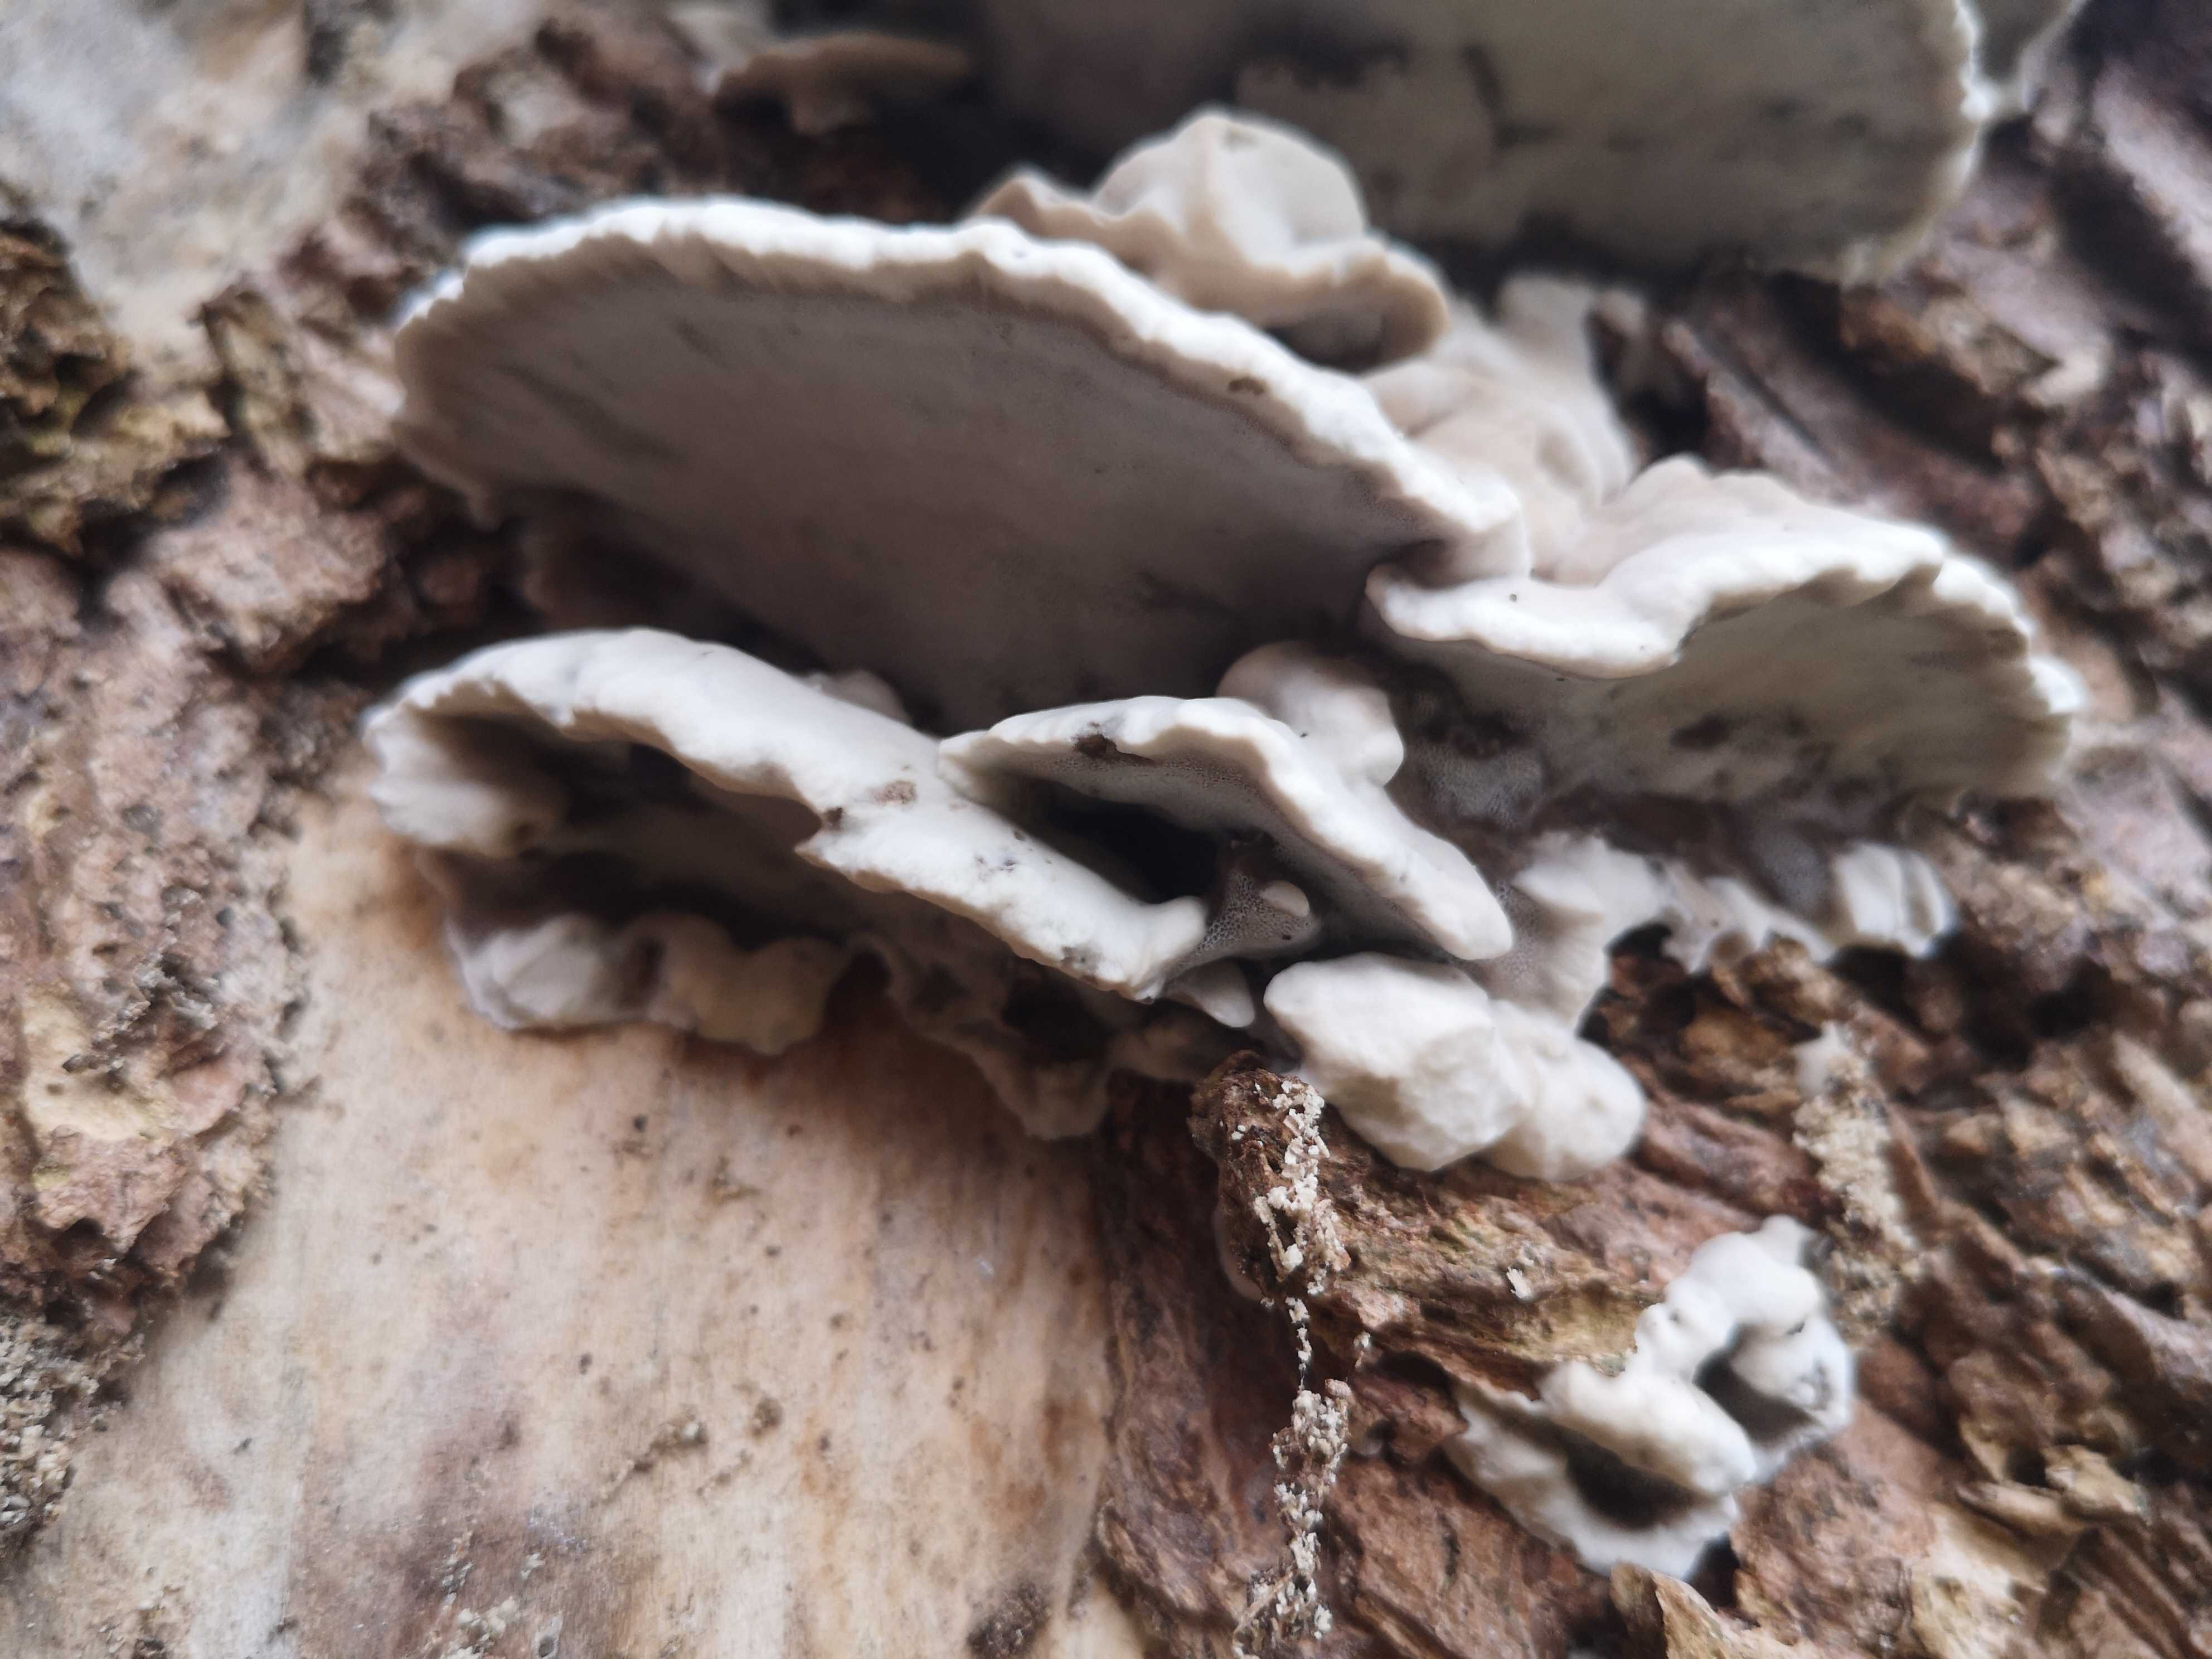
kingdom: Fungi
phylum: Basidiomycota
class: Agaricomycetes
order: Polyporales
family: Phanerochaetaceae
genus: Bjerkandera
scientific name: Bjerkandera adusta
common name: sveden sodporesvamp
